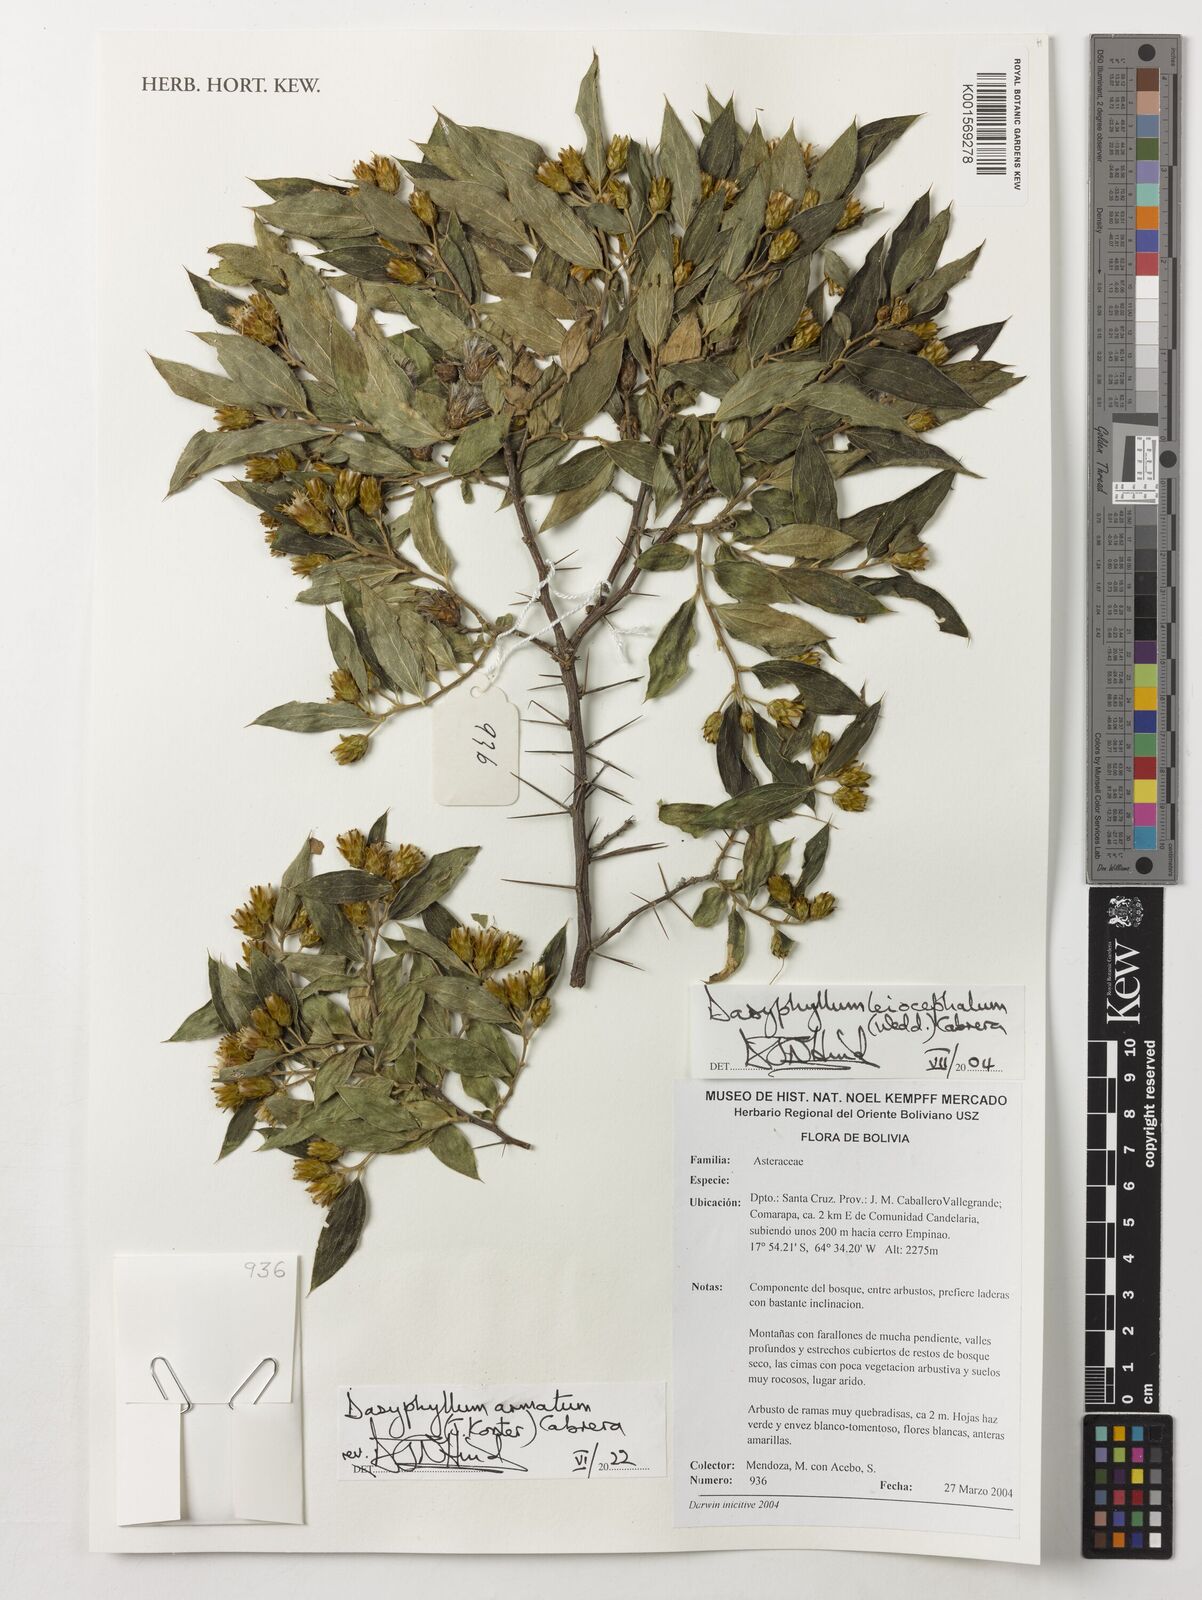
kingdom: Plantae
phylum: Tracheophyta
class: Magnoliopsida
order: Asterales
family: Asteraceae
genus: Dasyphyllum
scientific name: Dasyphyllum armatum
